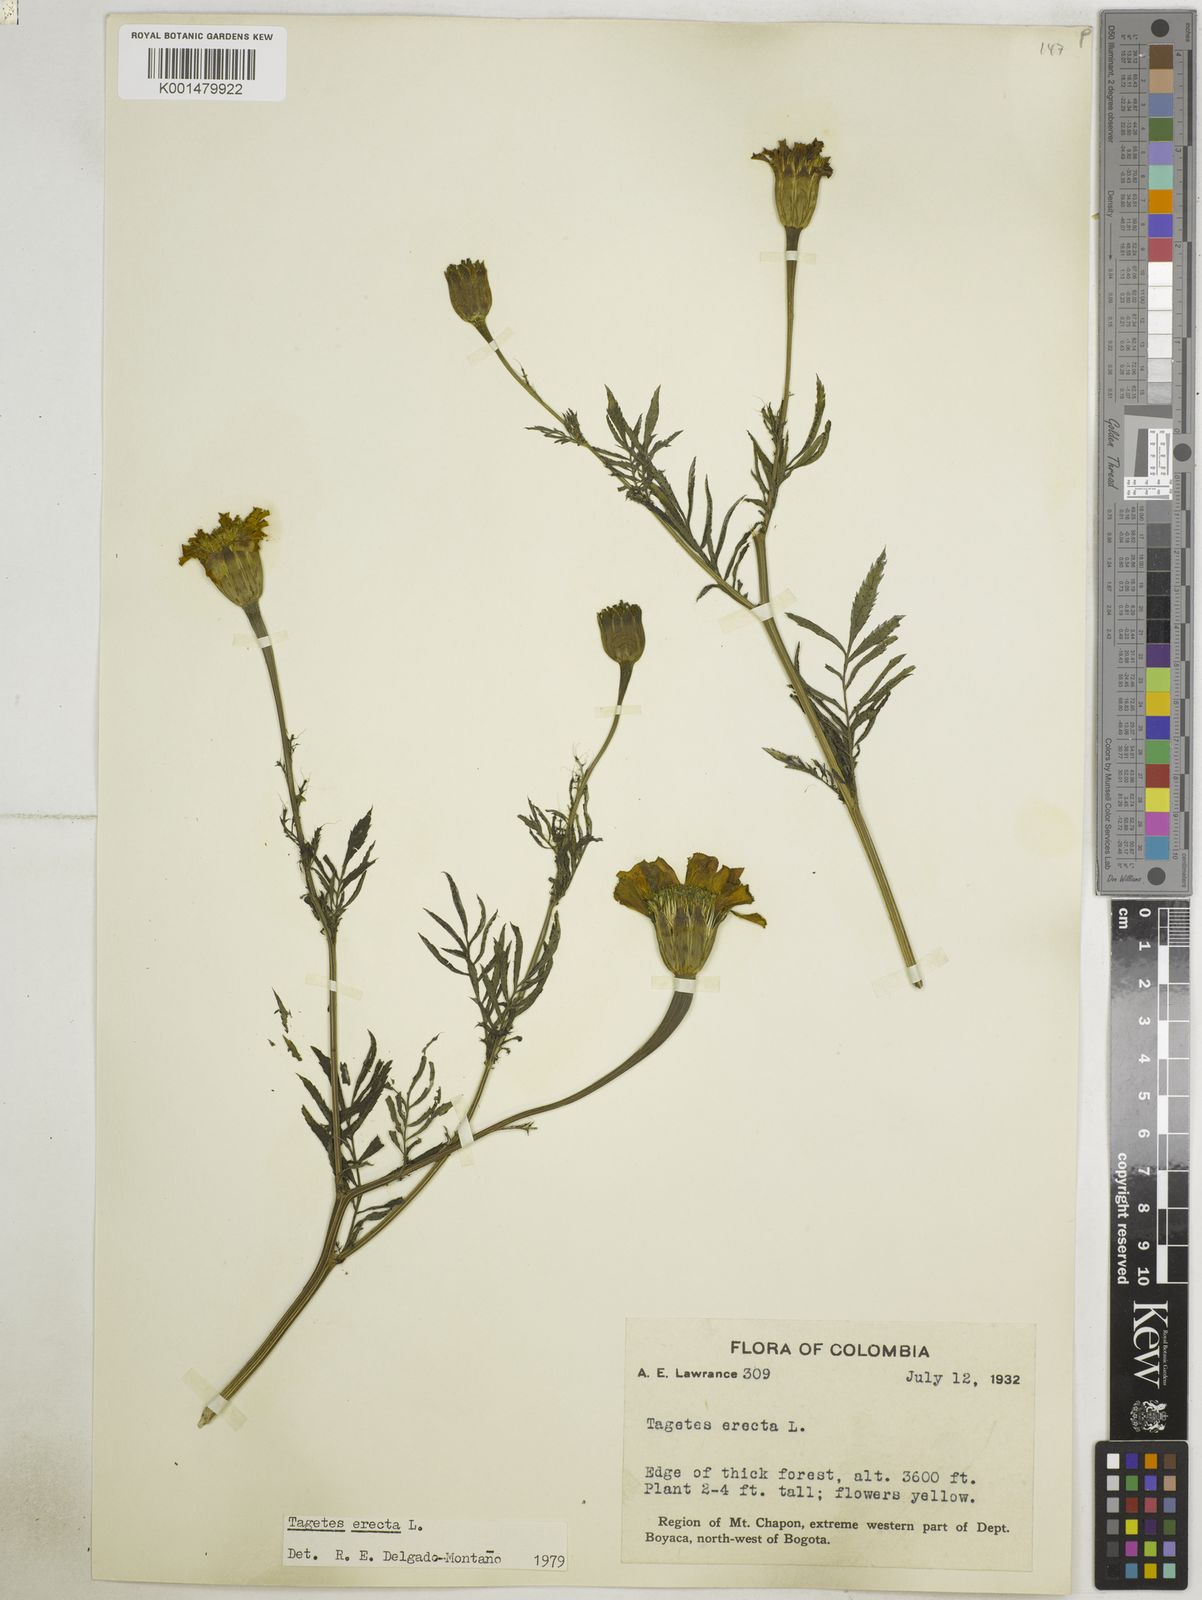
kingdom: Plantae
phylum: Tracheophyta
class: Magnoliopsida
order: Asterales
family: Asteraceae
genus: Tagetes
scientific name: Tagetes erecta
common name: African marigold
